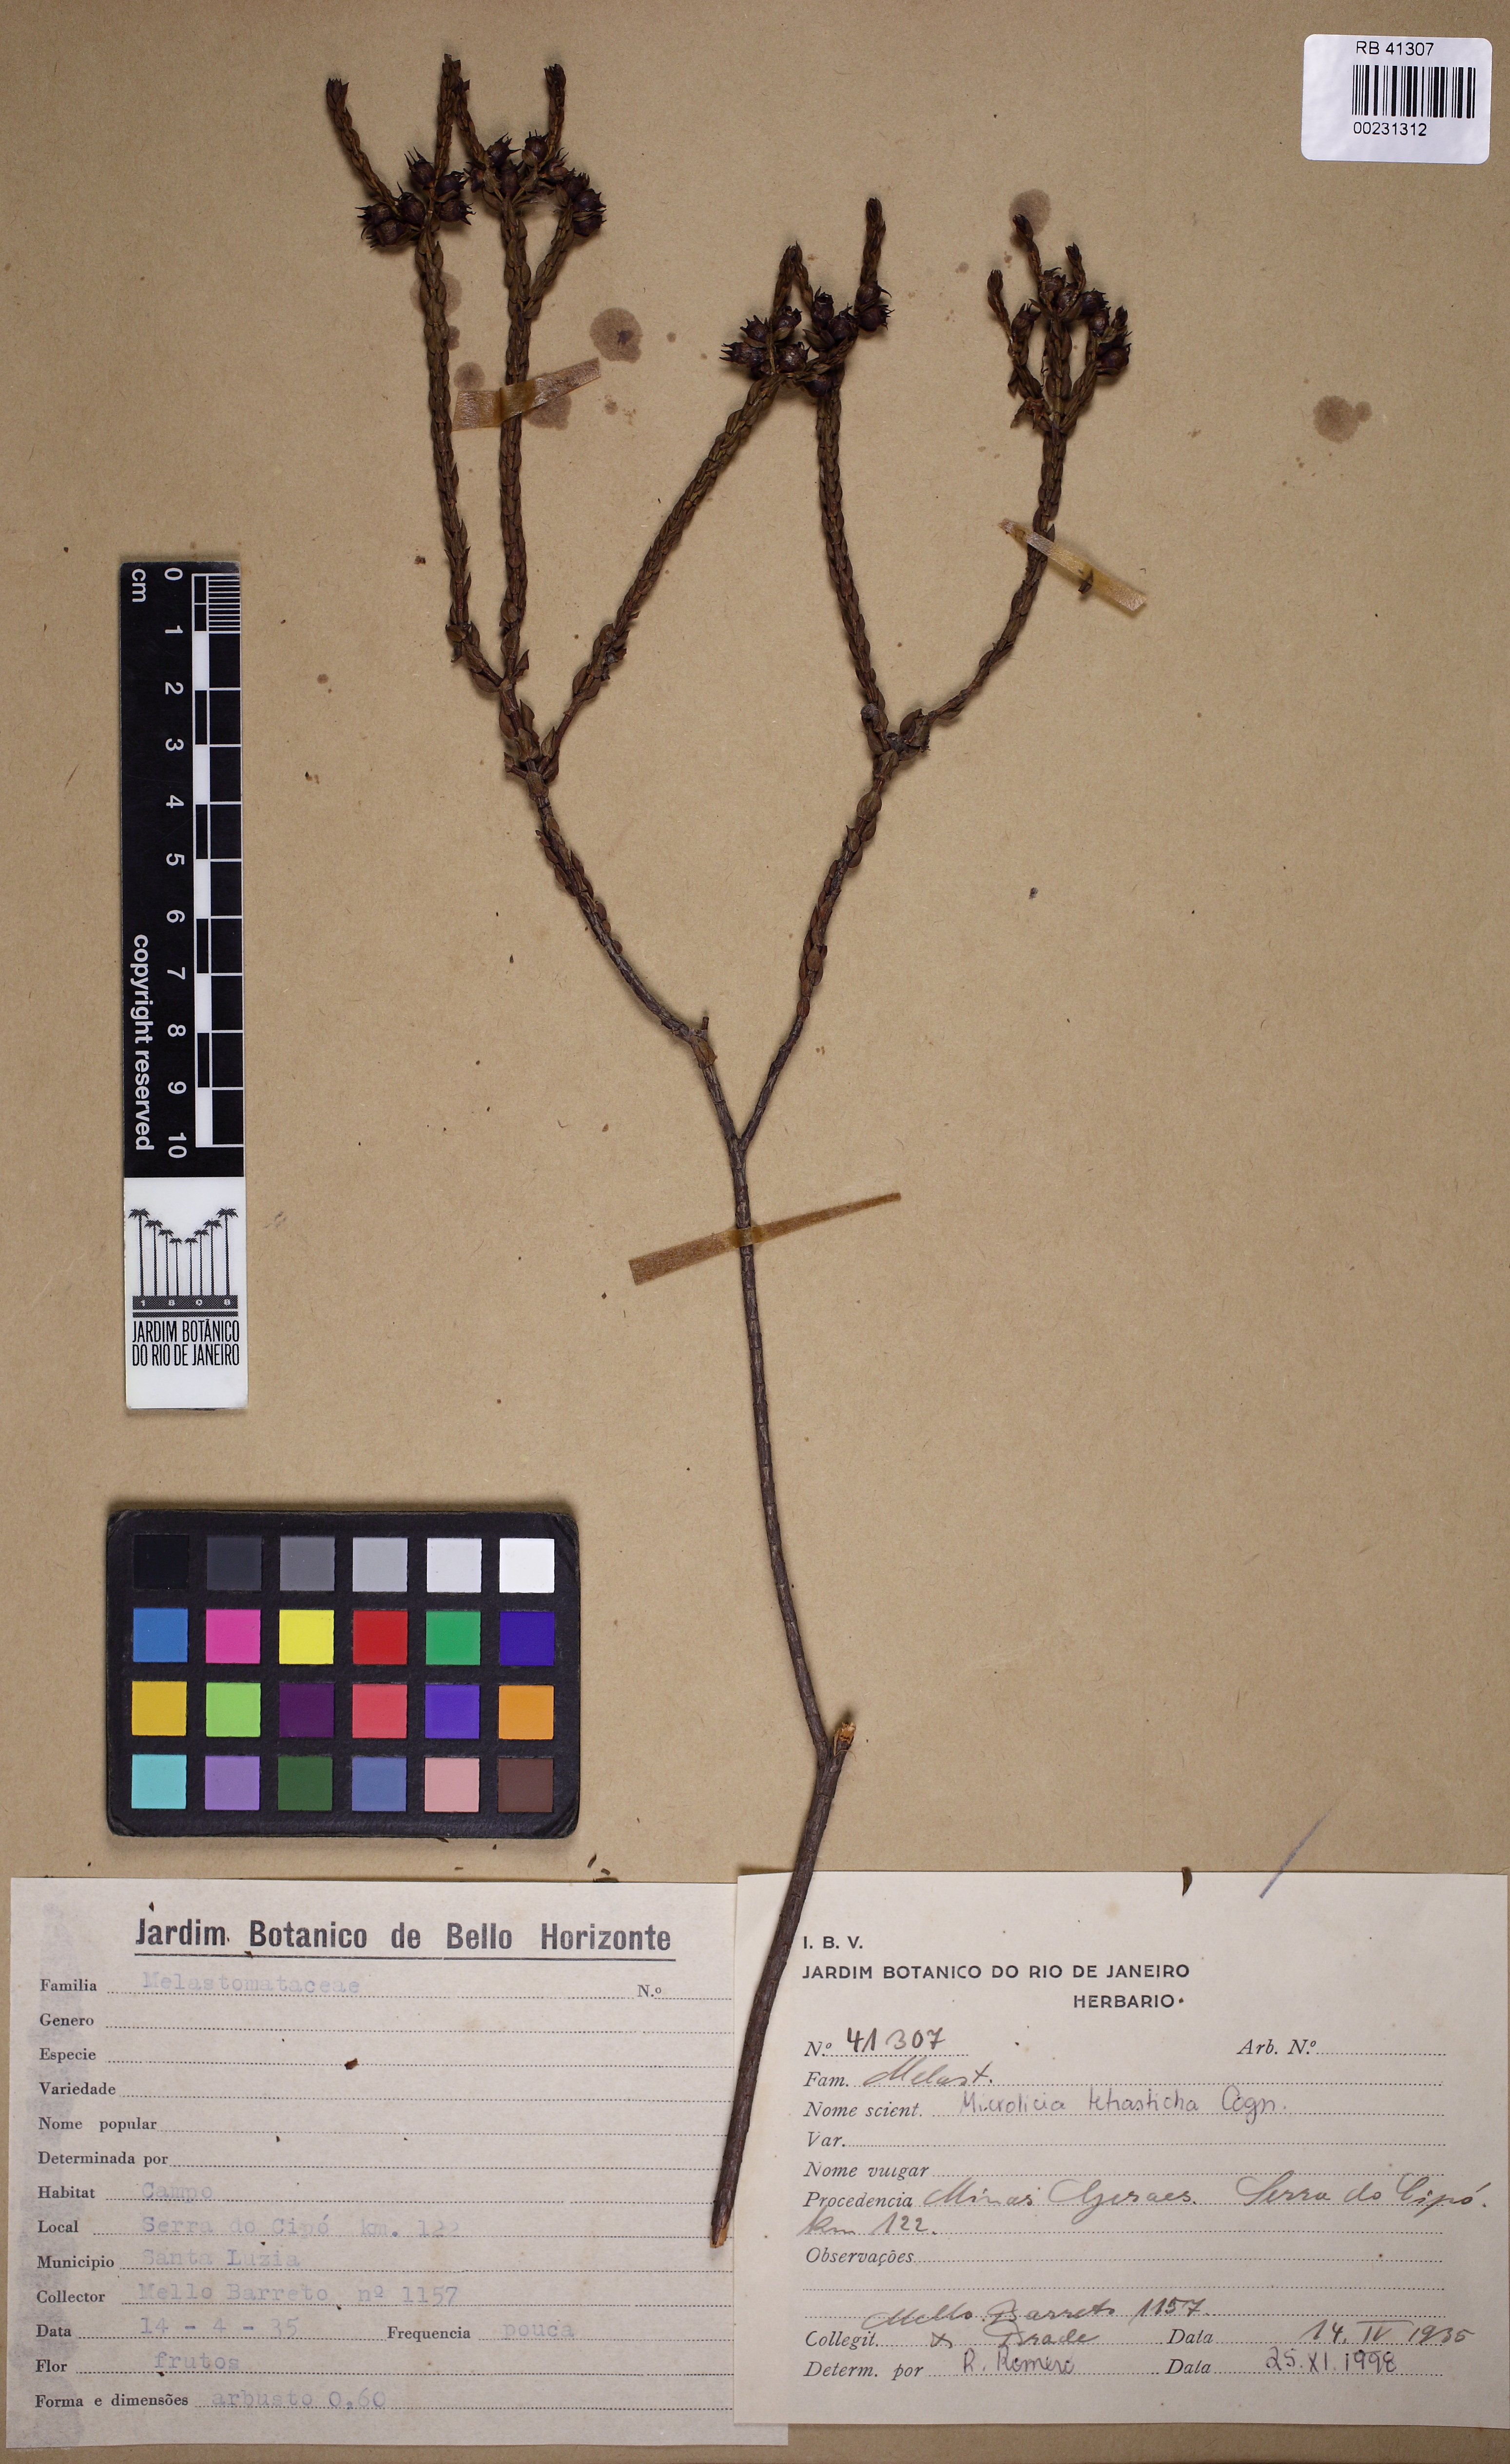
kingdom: Plantae
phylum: Tracheophyta
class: Magnoliopsida
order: Myrtales
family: Melastomataceae
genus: Microlicia
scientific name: Microlicia
